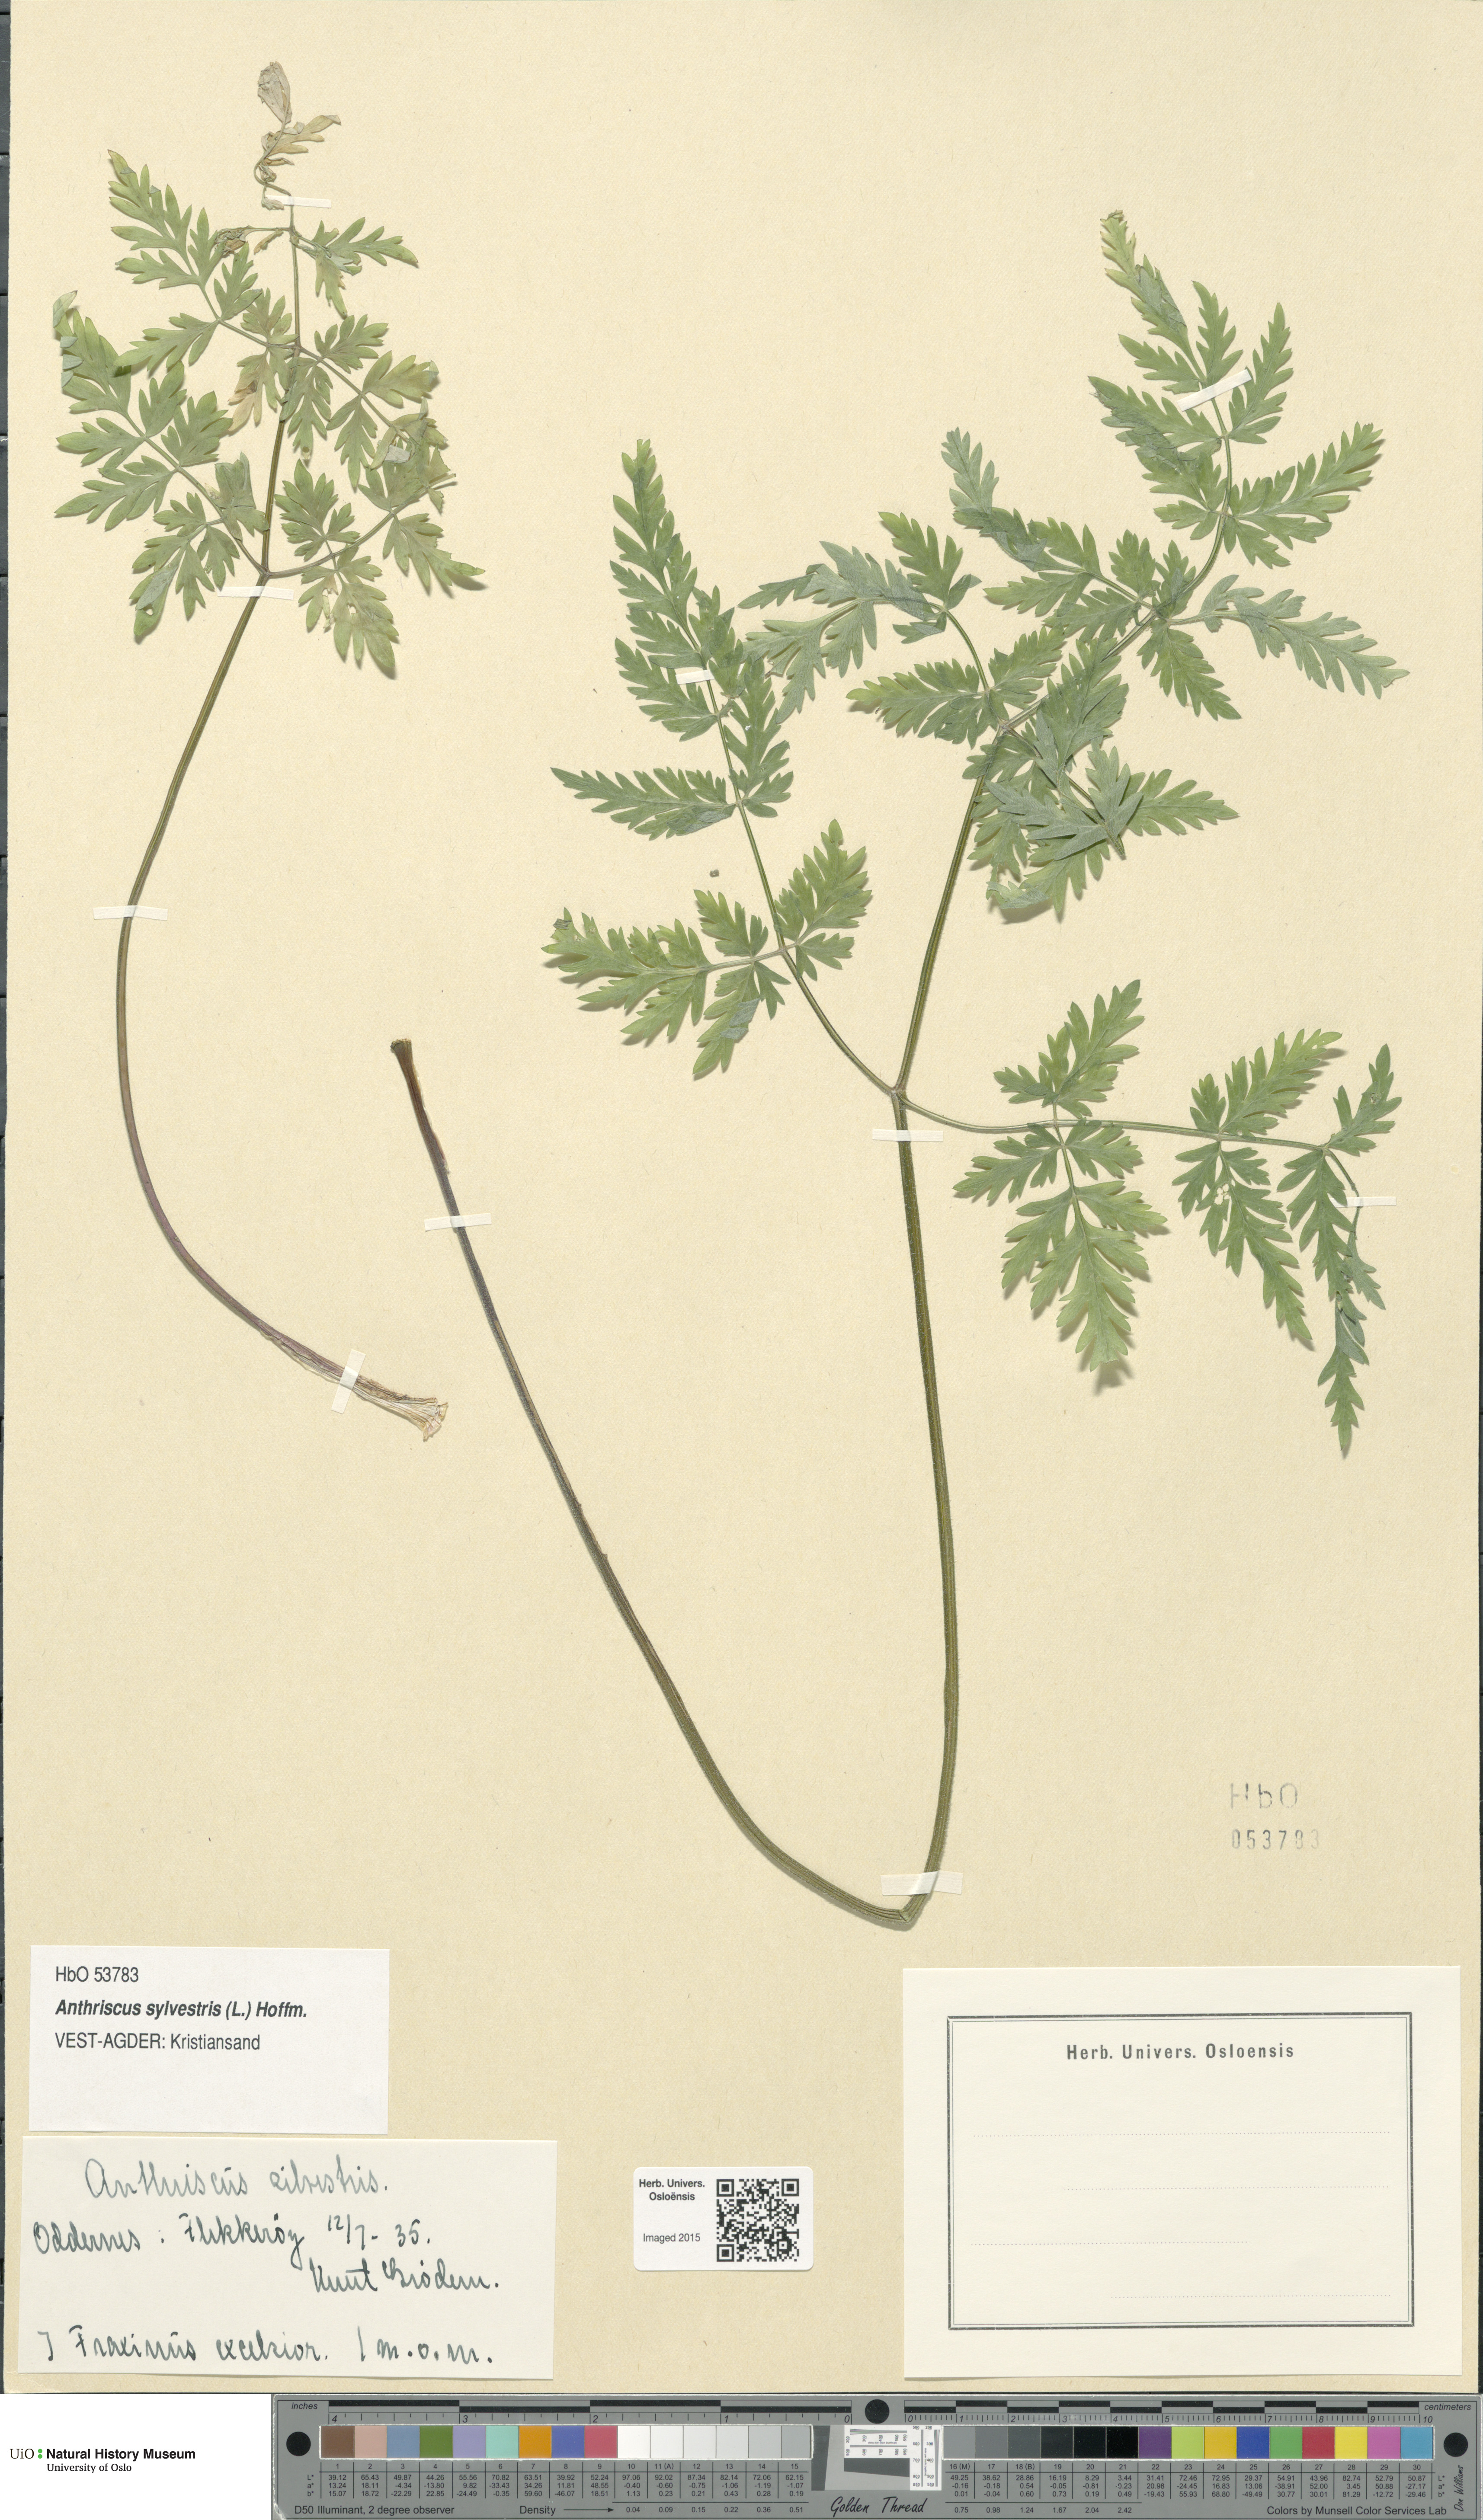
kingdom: Plantae
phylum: Tracheophyta
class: Magnoliopsida
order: Apiales
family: Apiaceae
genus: Anthriscus
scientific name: Anthriscus sylvestris
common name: Cow parsley
